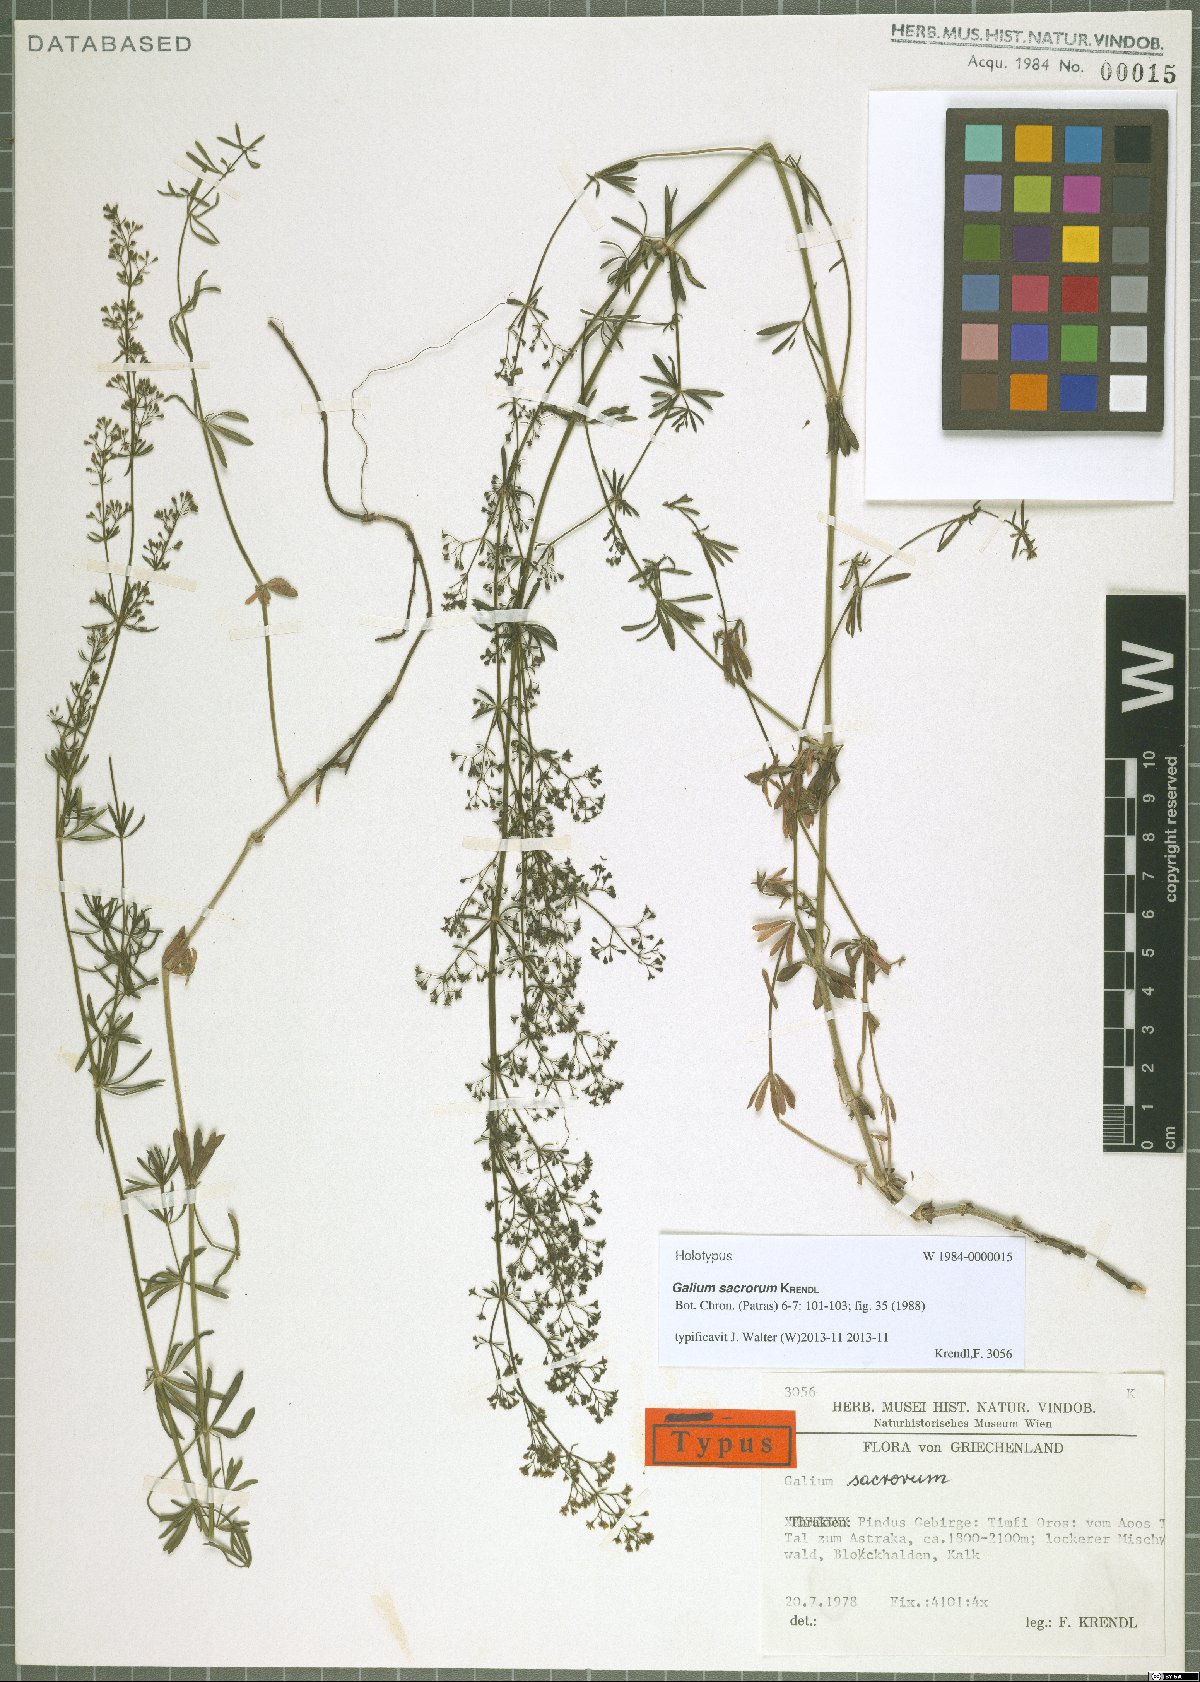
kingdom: Plantae
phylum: Tracheophyta
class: Magnoliopsida
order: Gentianales
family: Rubiaceae
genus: Galium
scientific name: Galium monasterium
